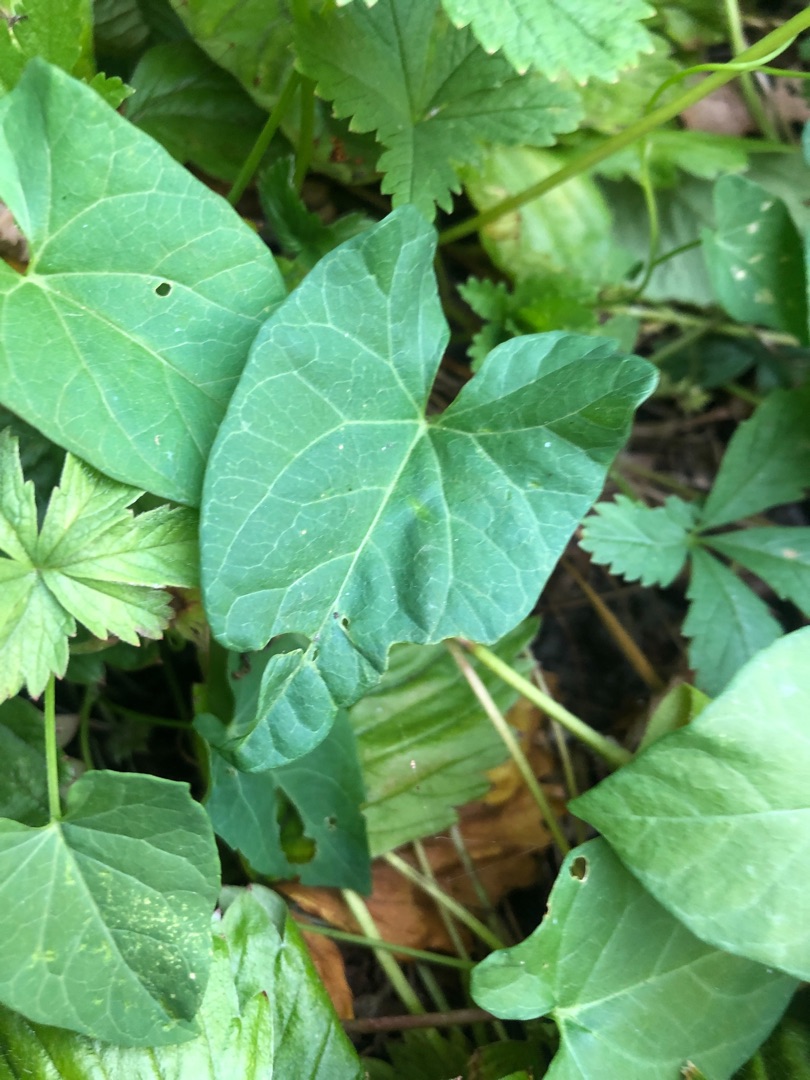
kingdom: Plantae
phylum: Tracheophyta
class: Magnoliopsida
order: Solanales
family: Convolvulaceae
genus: Calystegia
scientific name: Calystegia sepium
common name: Gærde-snerle
